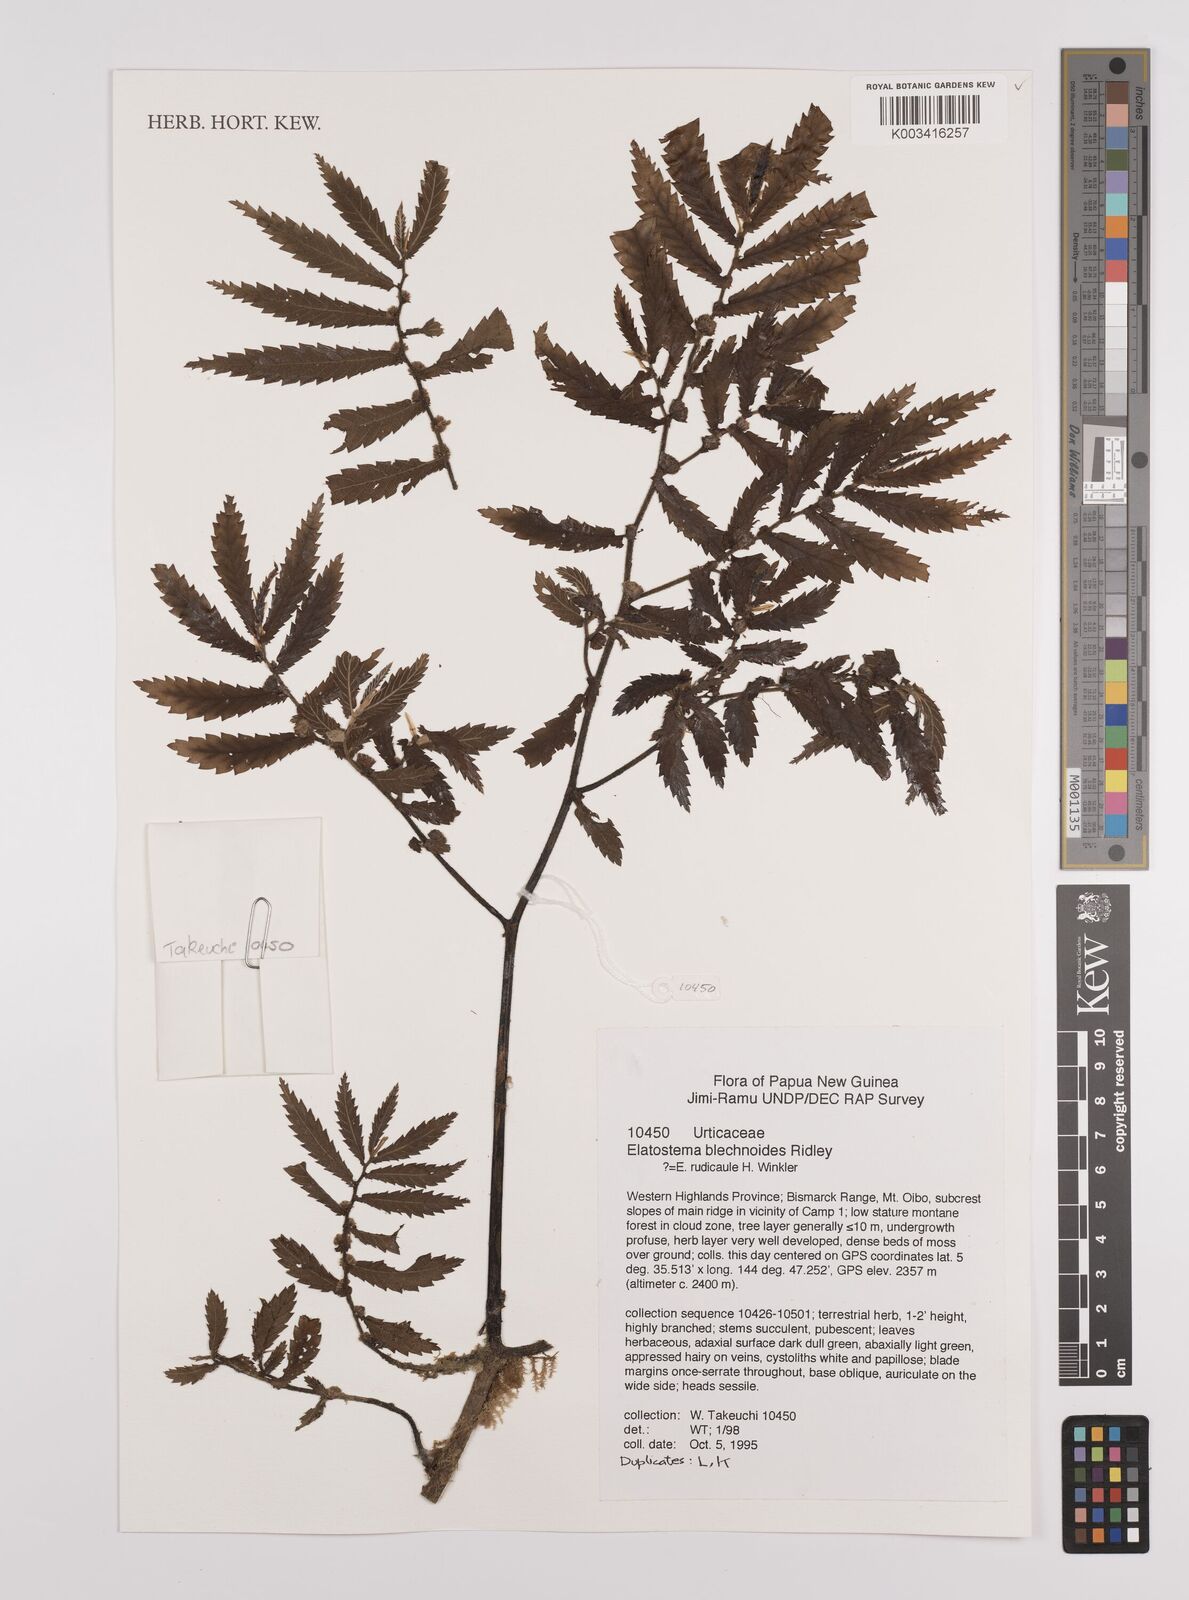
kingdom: Plantae
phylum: Tracheophyta
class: Magnoliopsida
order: Rosales
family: Urticaceae
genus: Elatostema
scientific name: Elatostema blechnoides
